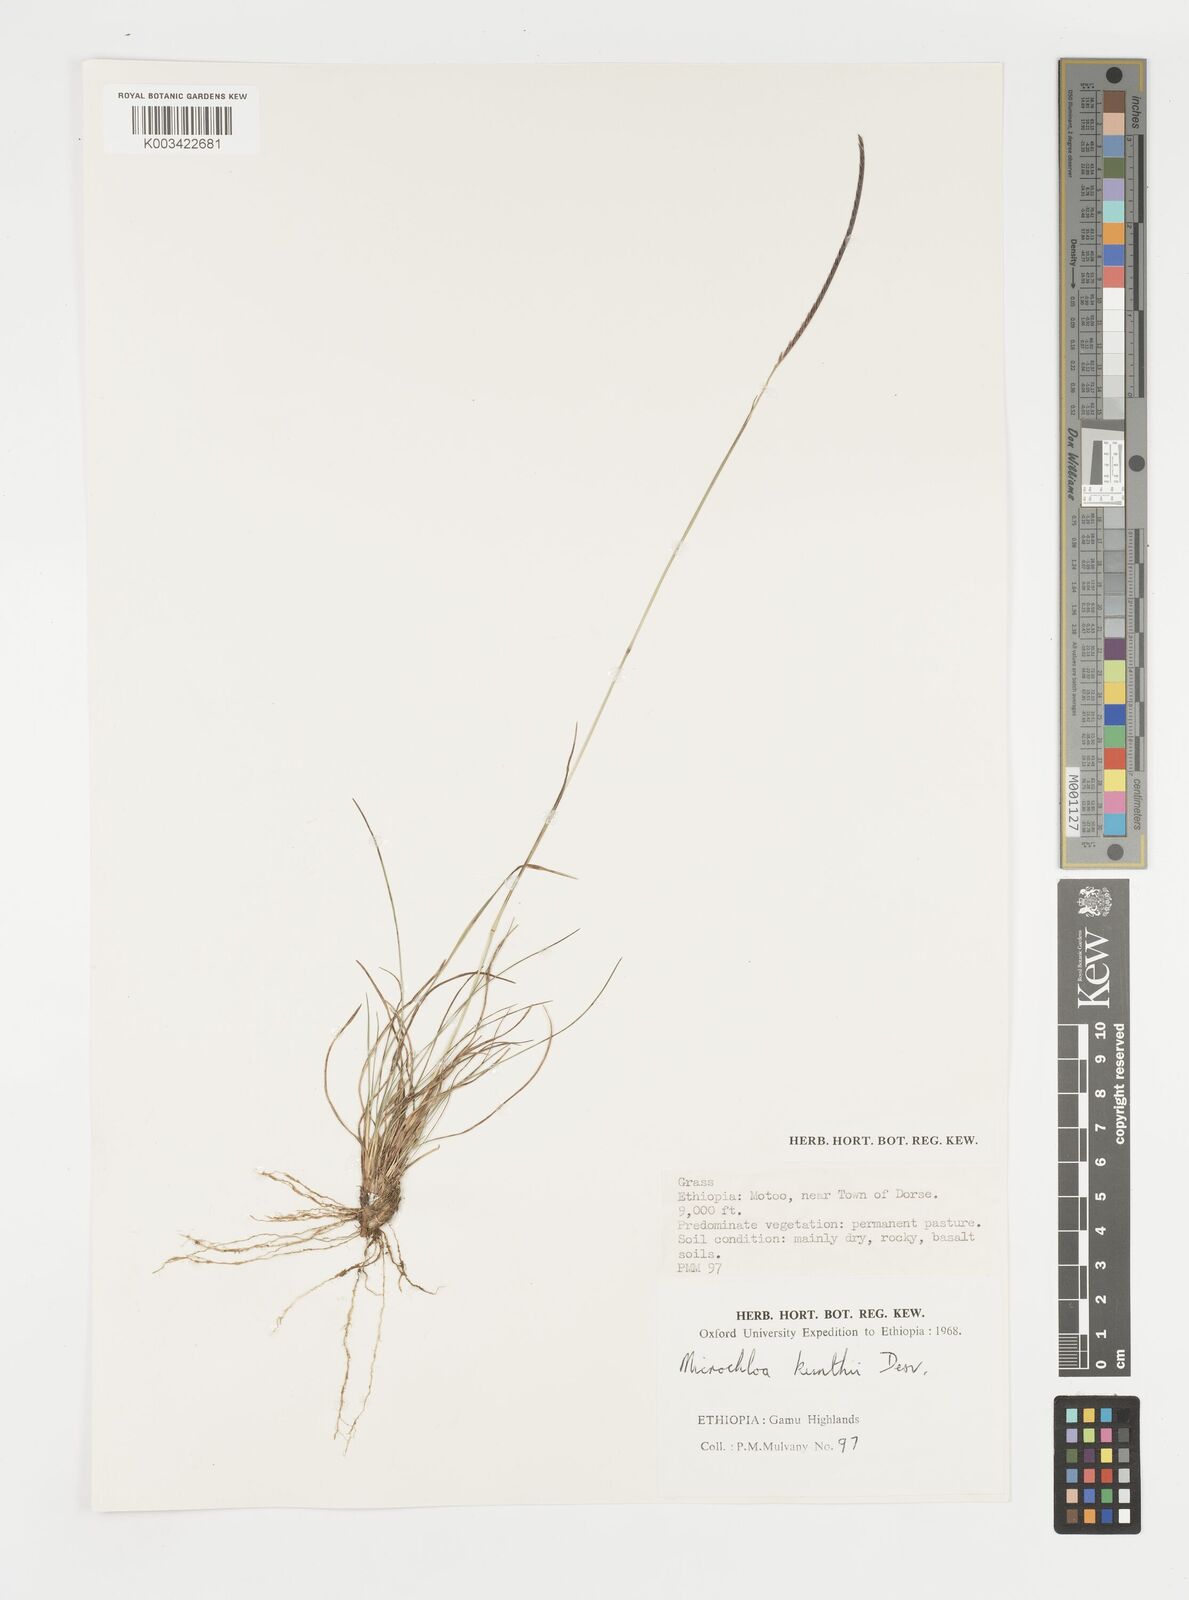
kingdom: Plantae
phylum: Tracheophyta
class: Liliopsida
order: Poales
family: Poaceae
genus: Microchloa
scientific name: Microchloa kunthii
